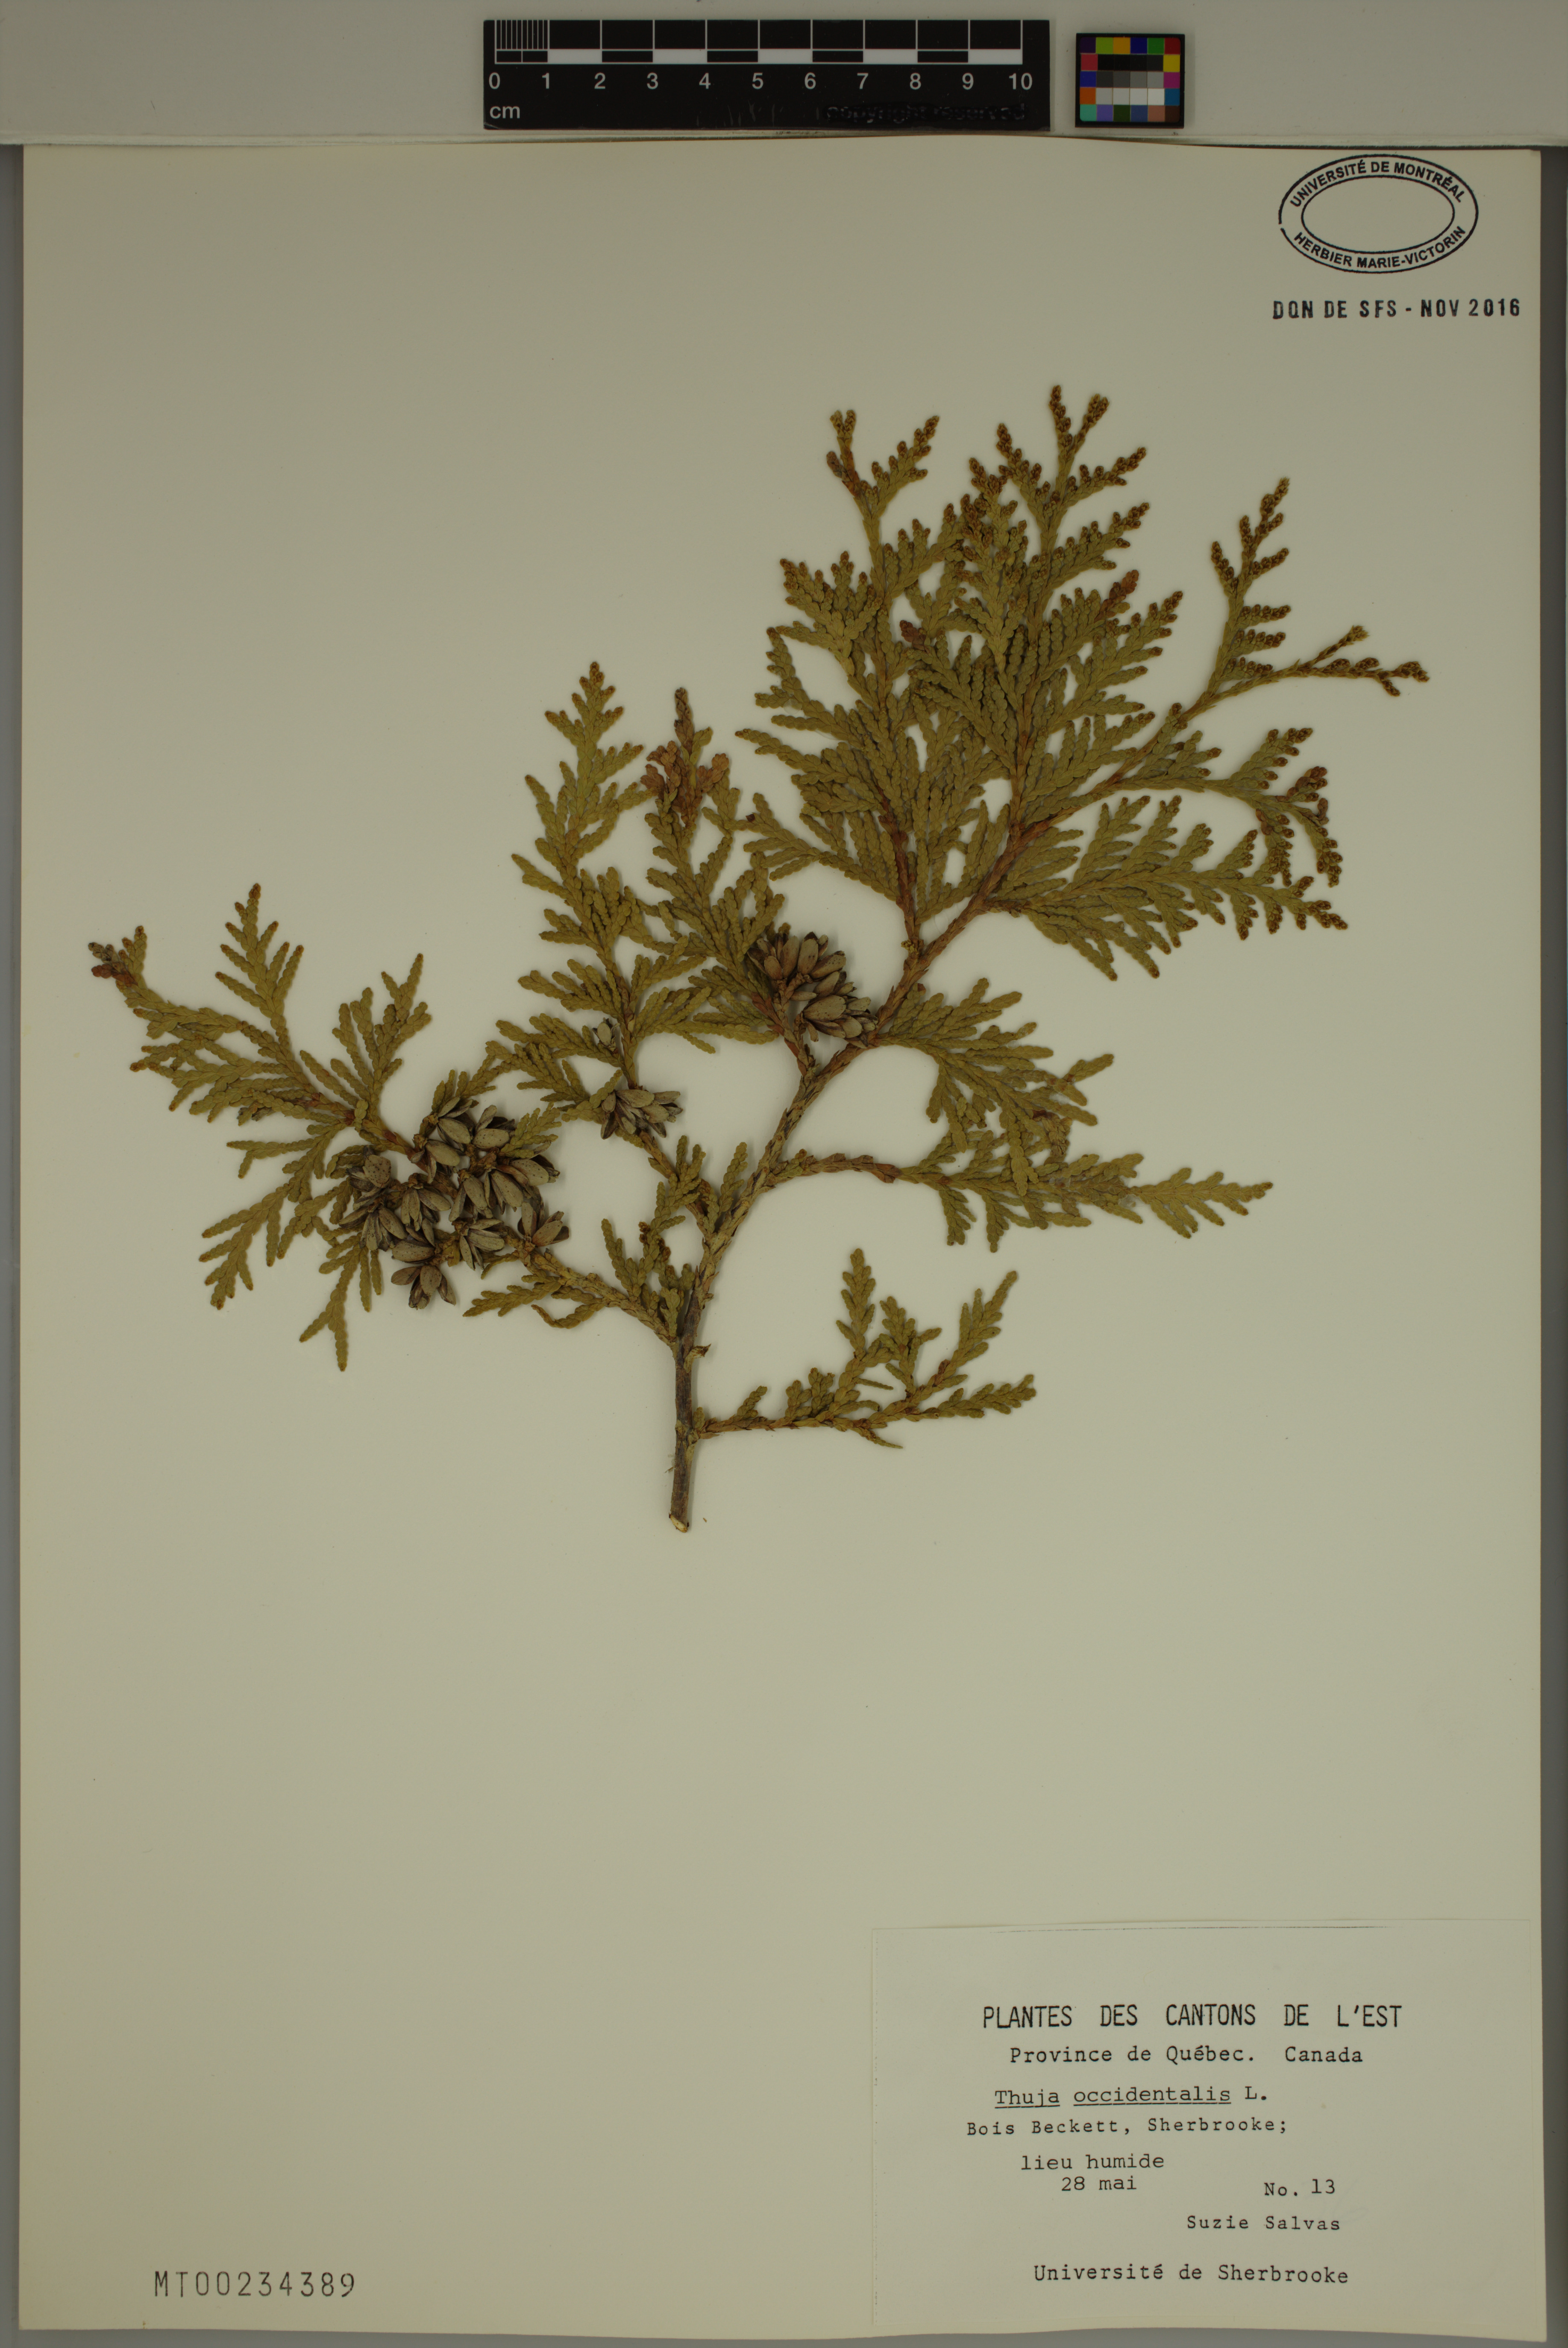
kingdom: Plantae
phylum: Tracheophyta
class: Pinopsida
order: Pinales
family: Cupressaceae
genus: Thuja
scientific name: Thuja occidentalis
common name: Northern white-cedar
